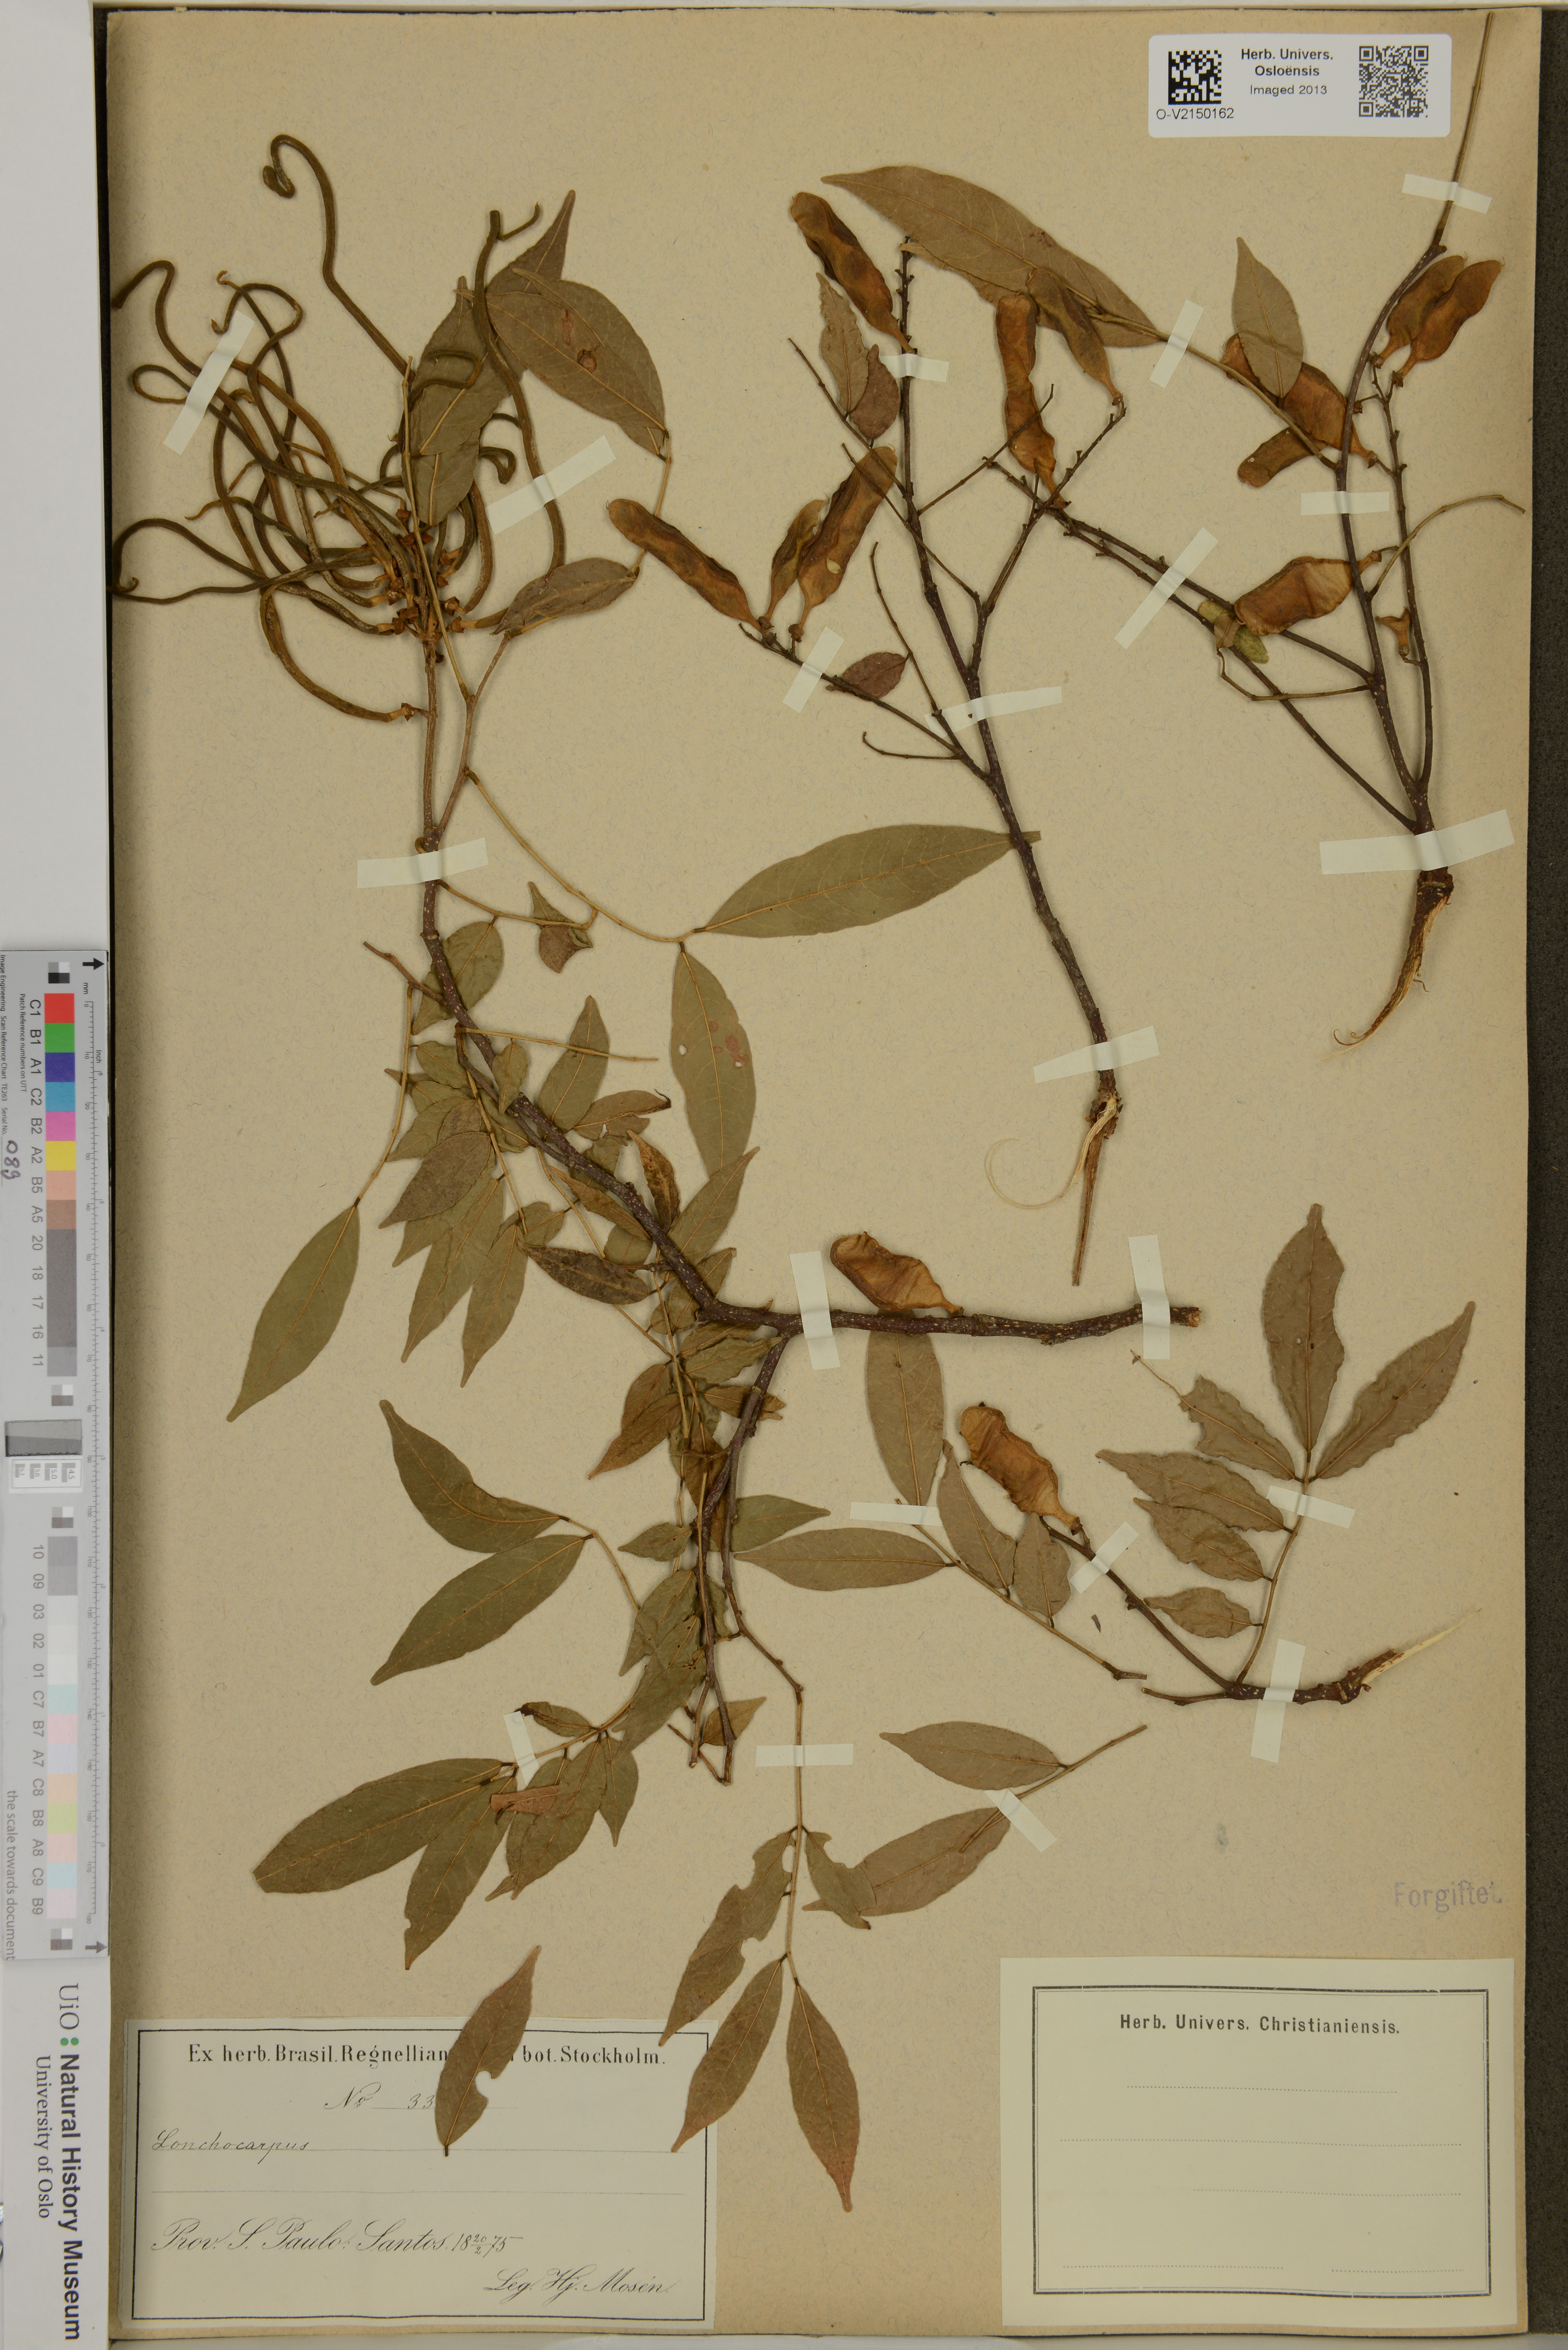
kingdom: Plantae
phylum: Tracheophyta
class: Magnoliopsida
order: Fabales
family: Fabaceae
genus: Lonchocarpus
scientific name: Lonchocarpus
